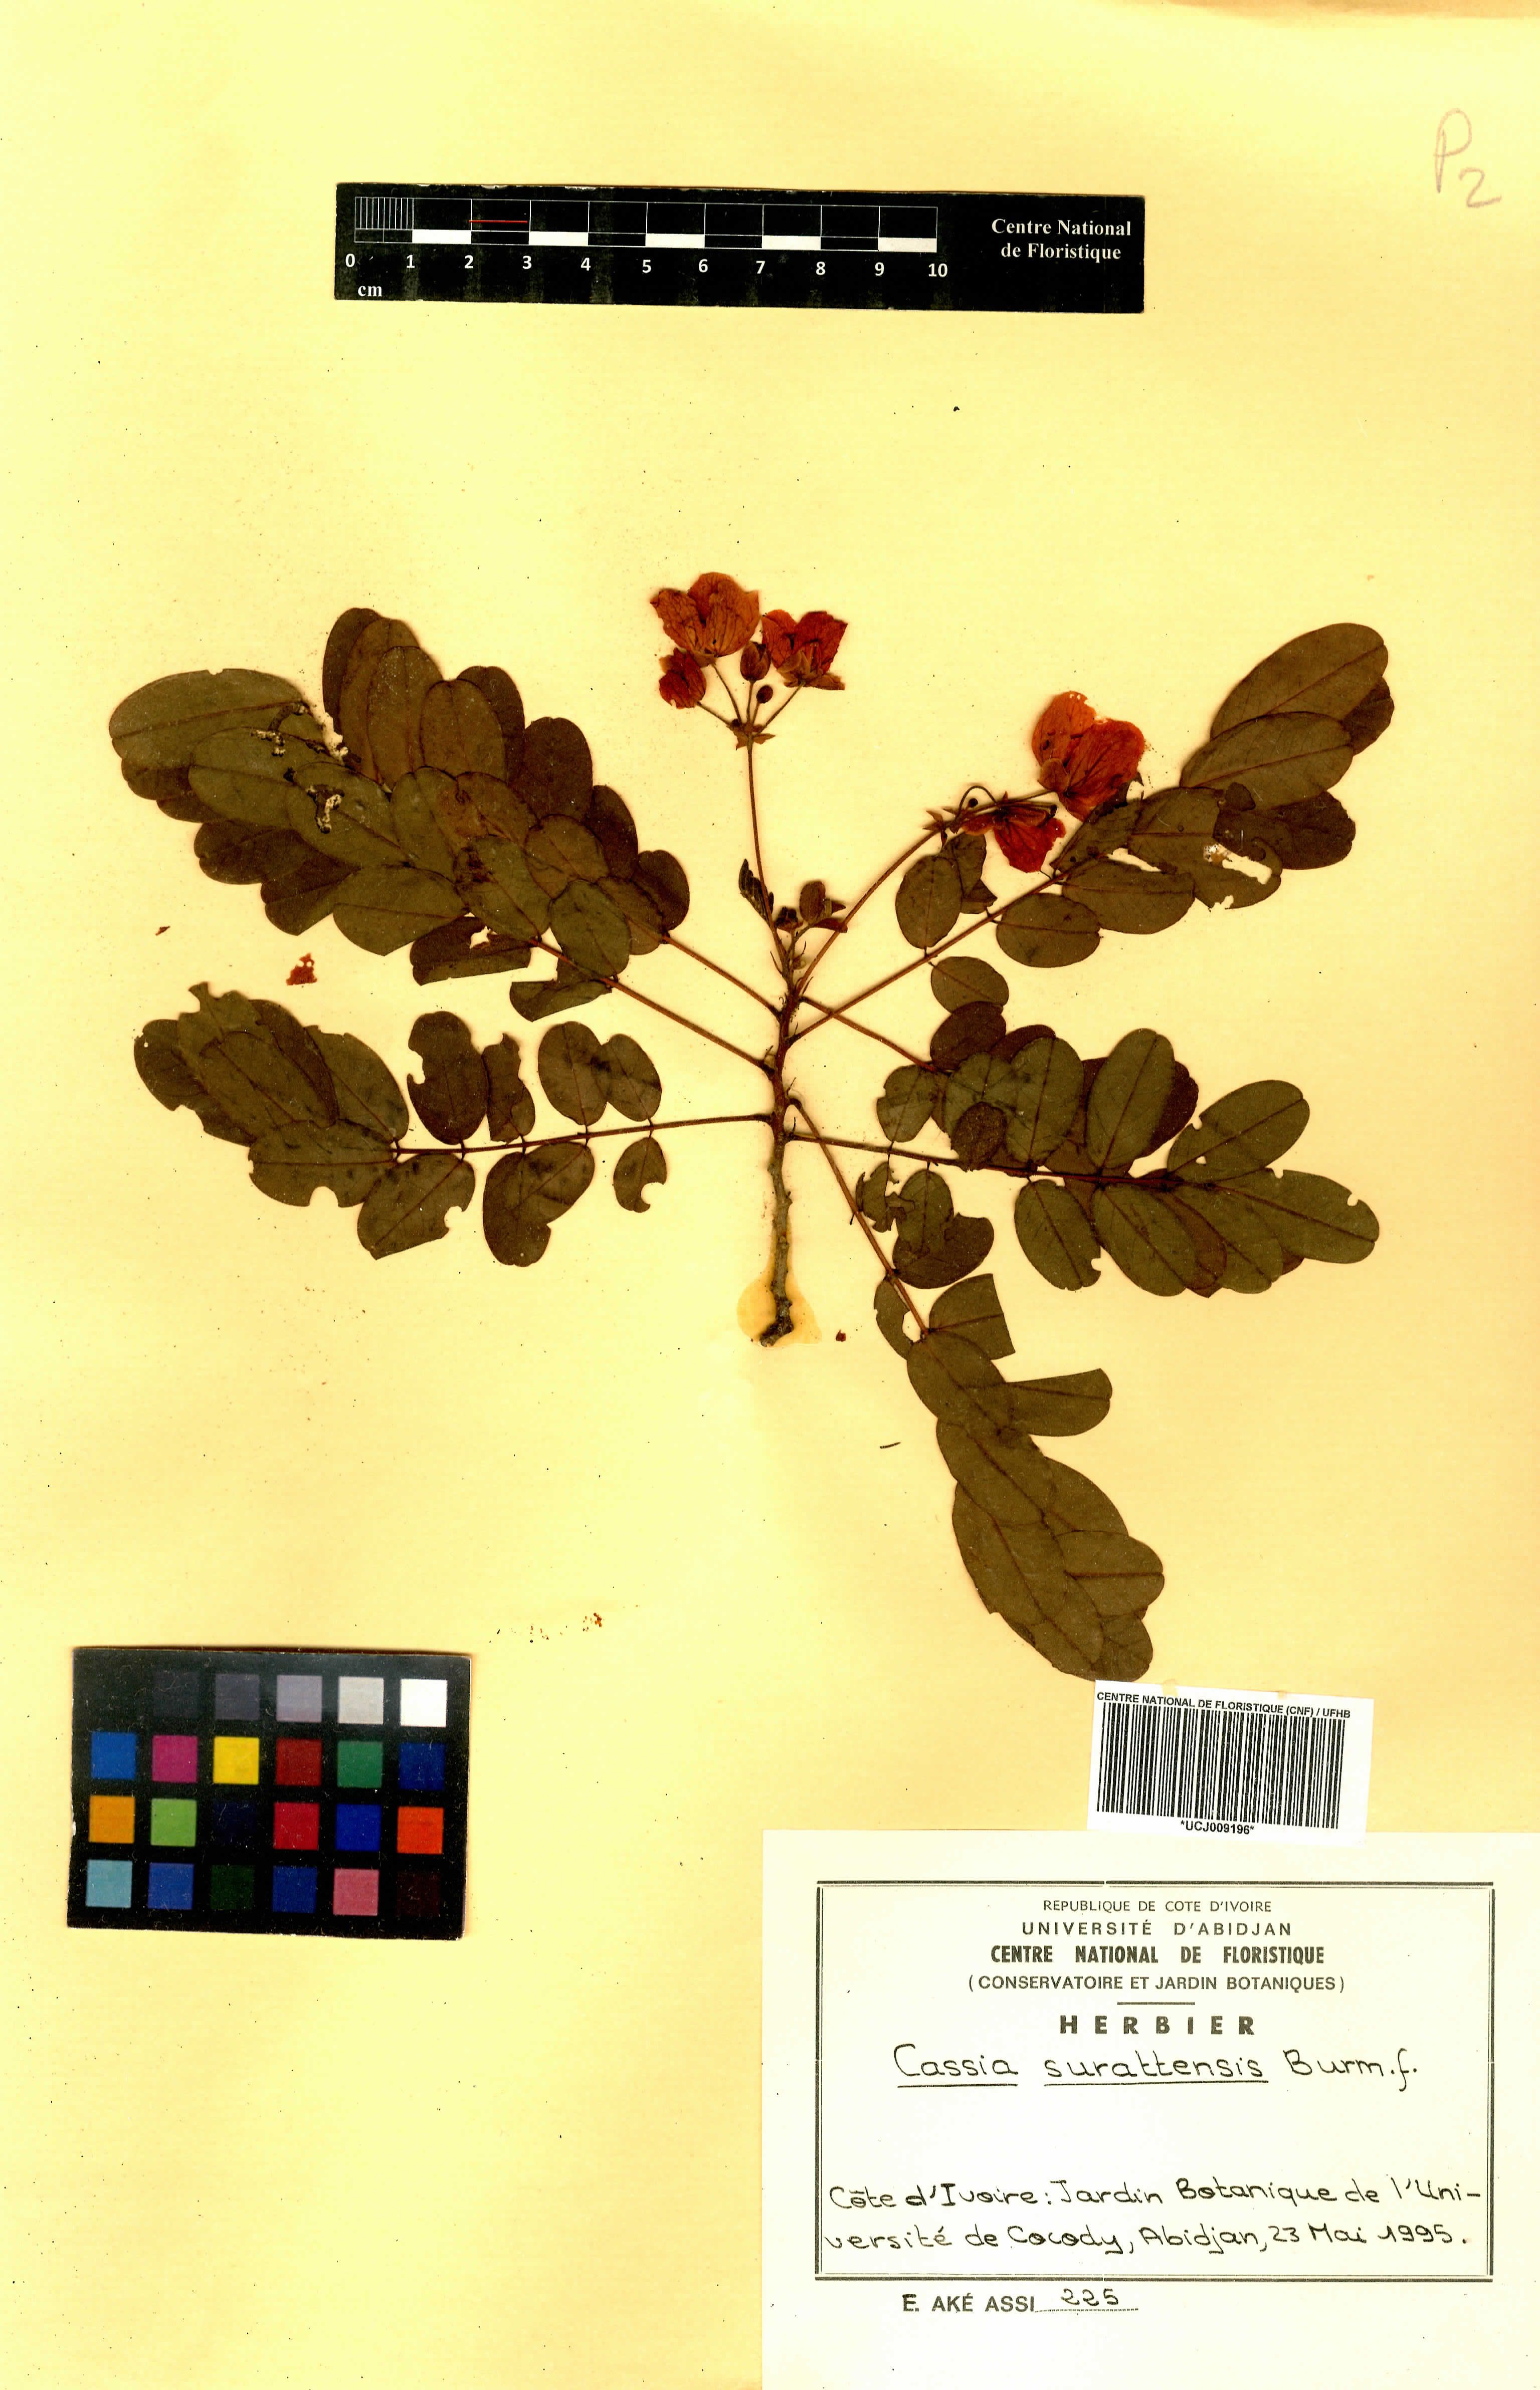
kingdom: Plantae
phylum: Tracheophyta
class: Magnoliopsida
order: Fabales
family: Fabaceae
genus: Senna
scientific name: Senna surattensis
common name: Glossy shower
